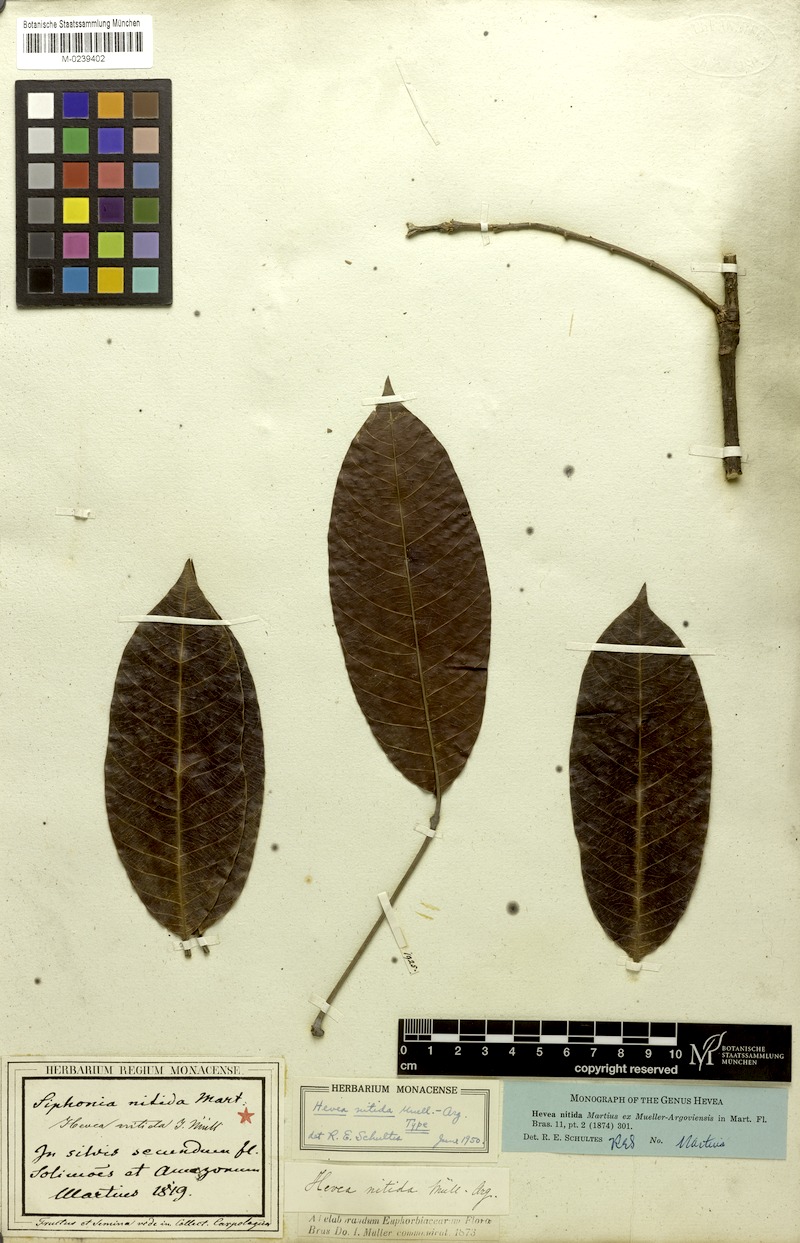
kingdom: Plantae
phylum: Tracheophyta
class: Magnoliopsida
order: Malpighiales
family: Euphorbiaceae
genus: Hevea
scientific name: Hevea nitida
